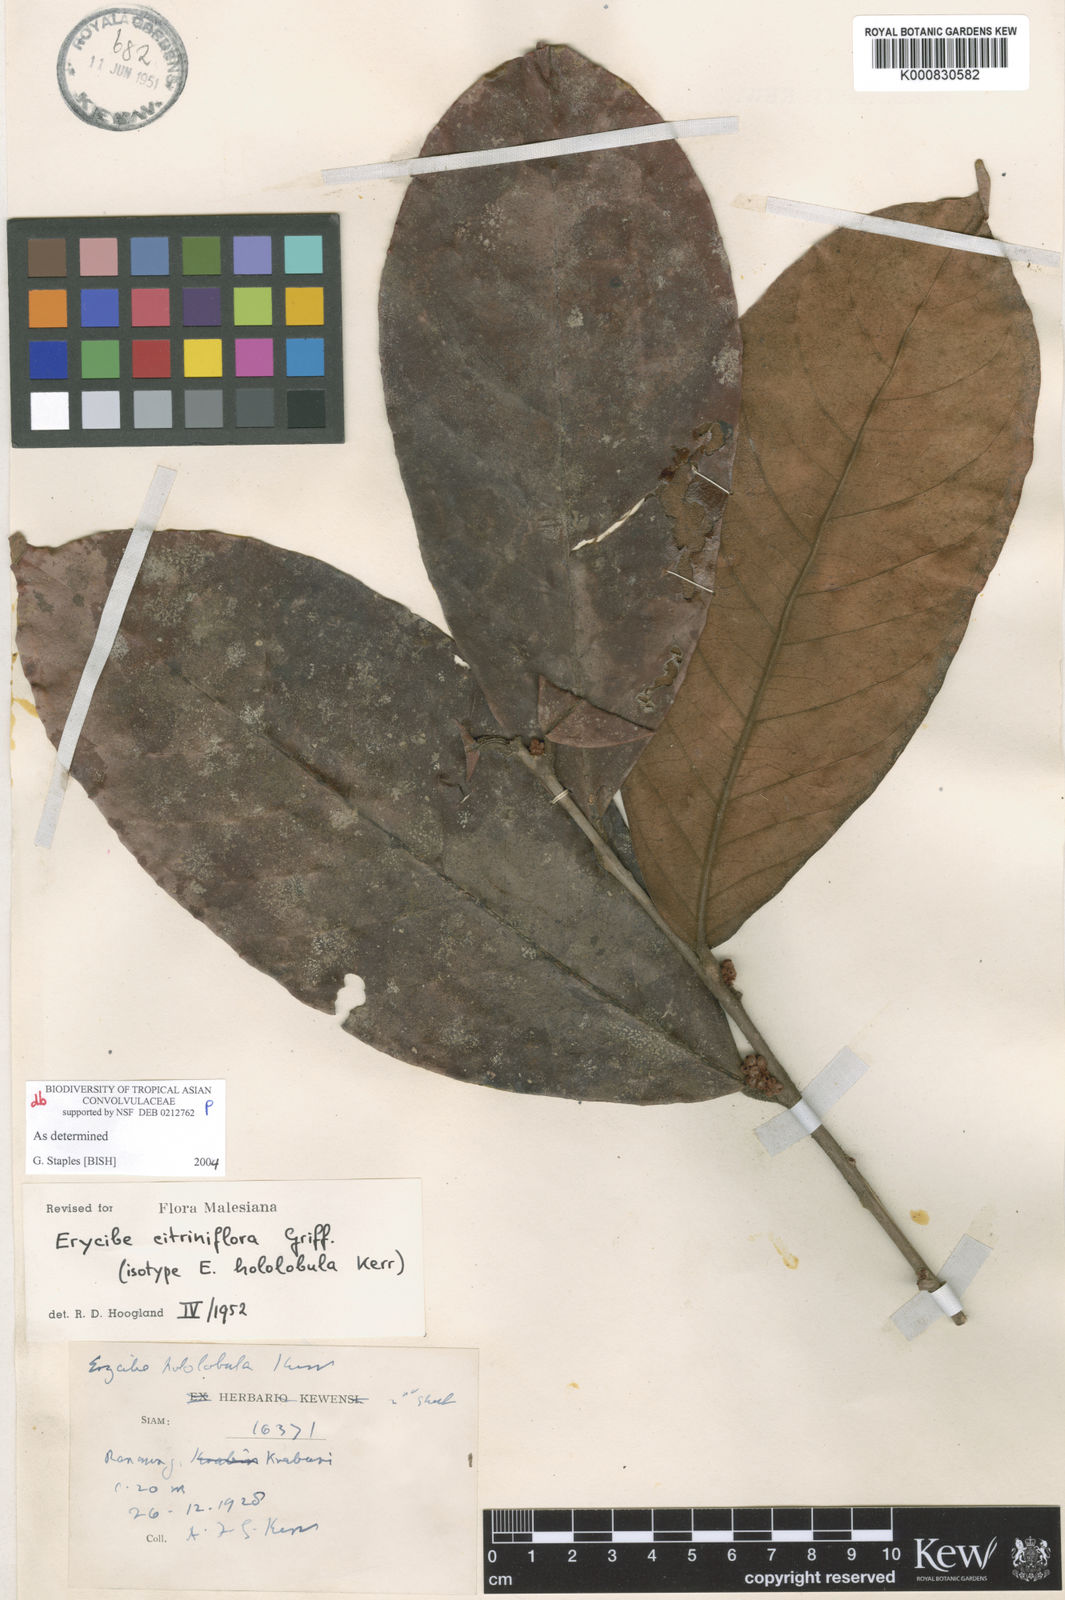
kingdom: Plantae
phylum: Tracheophyta
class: Magnoliopsida
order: Solanales
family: Convolvulaceae
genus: Erycibe
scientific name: Erycibe citriniflora
